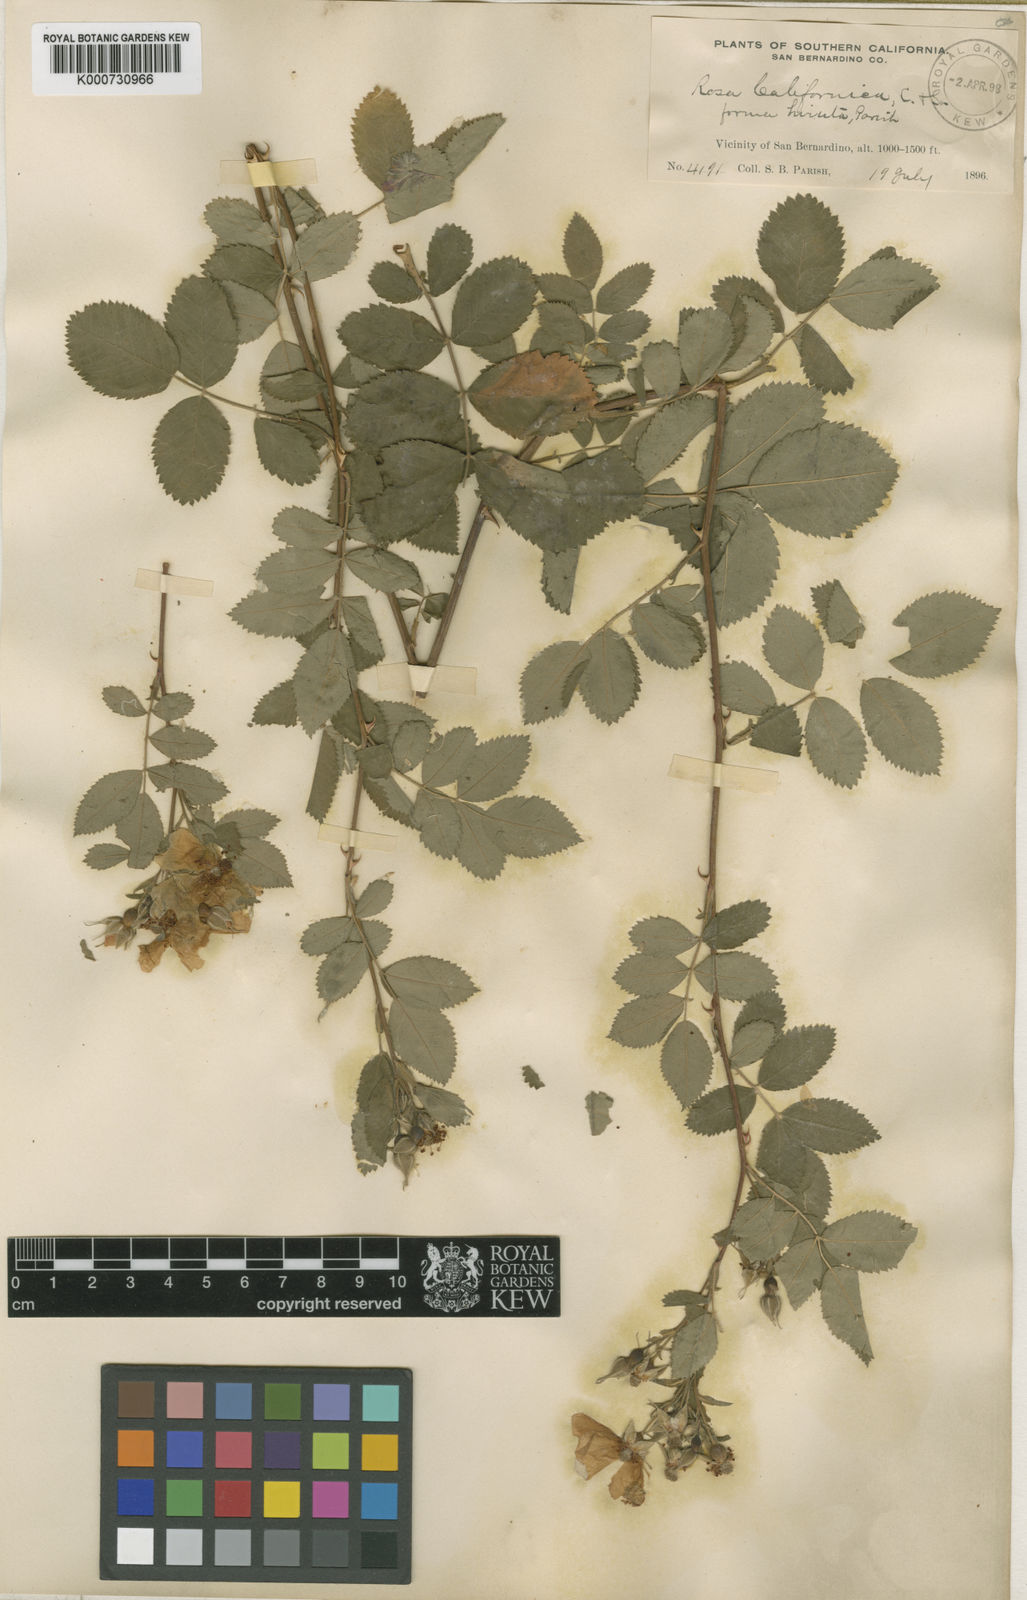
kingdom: Plantae
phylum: Tracheophyta
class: Magnoliopsida
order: Rosales
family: Rosaceae
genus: Rosa
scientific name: Rosa californica
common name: California rose
